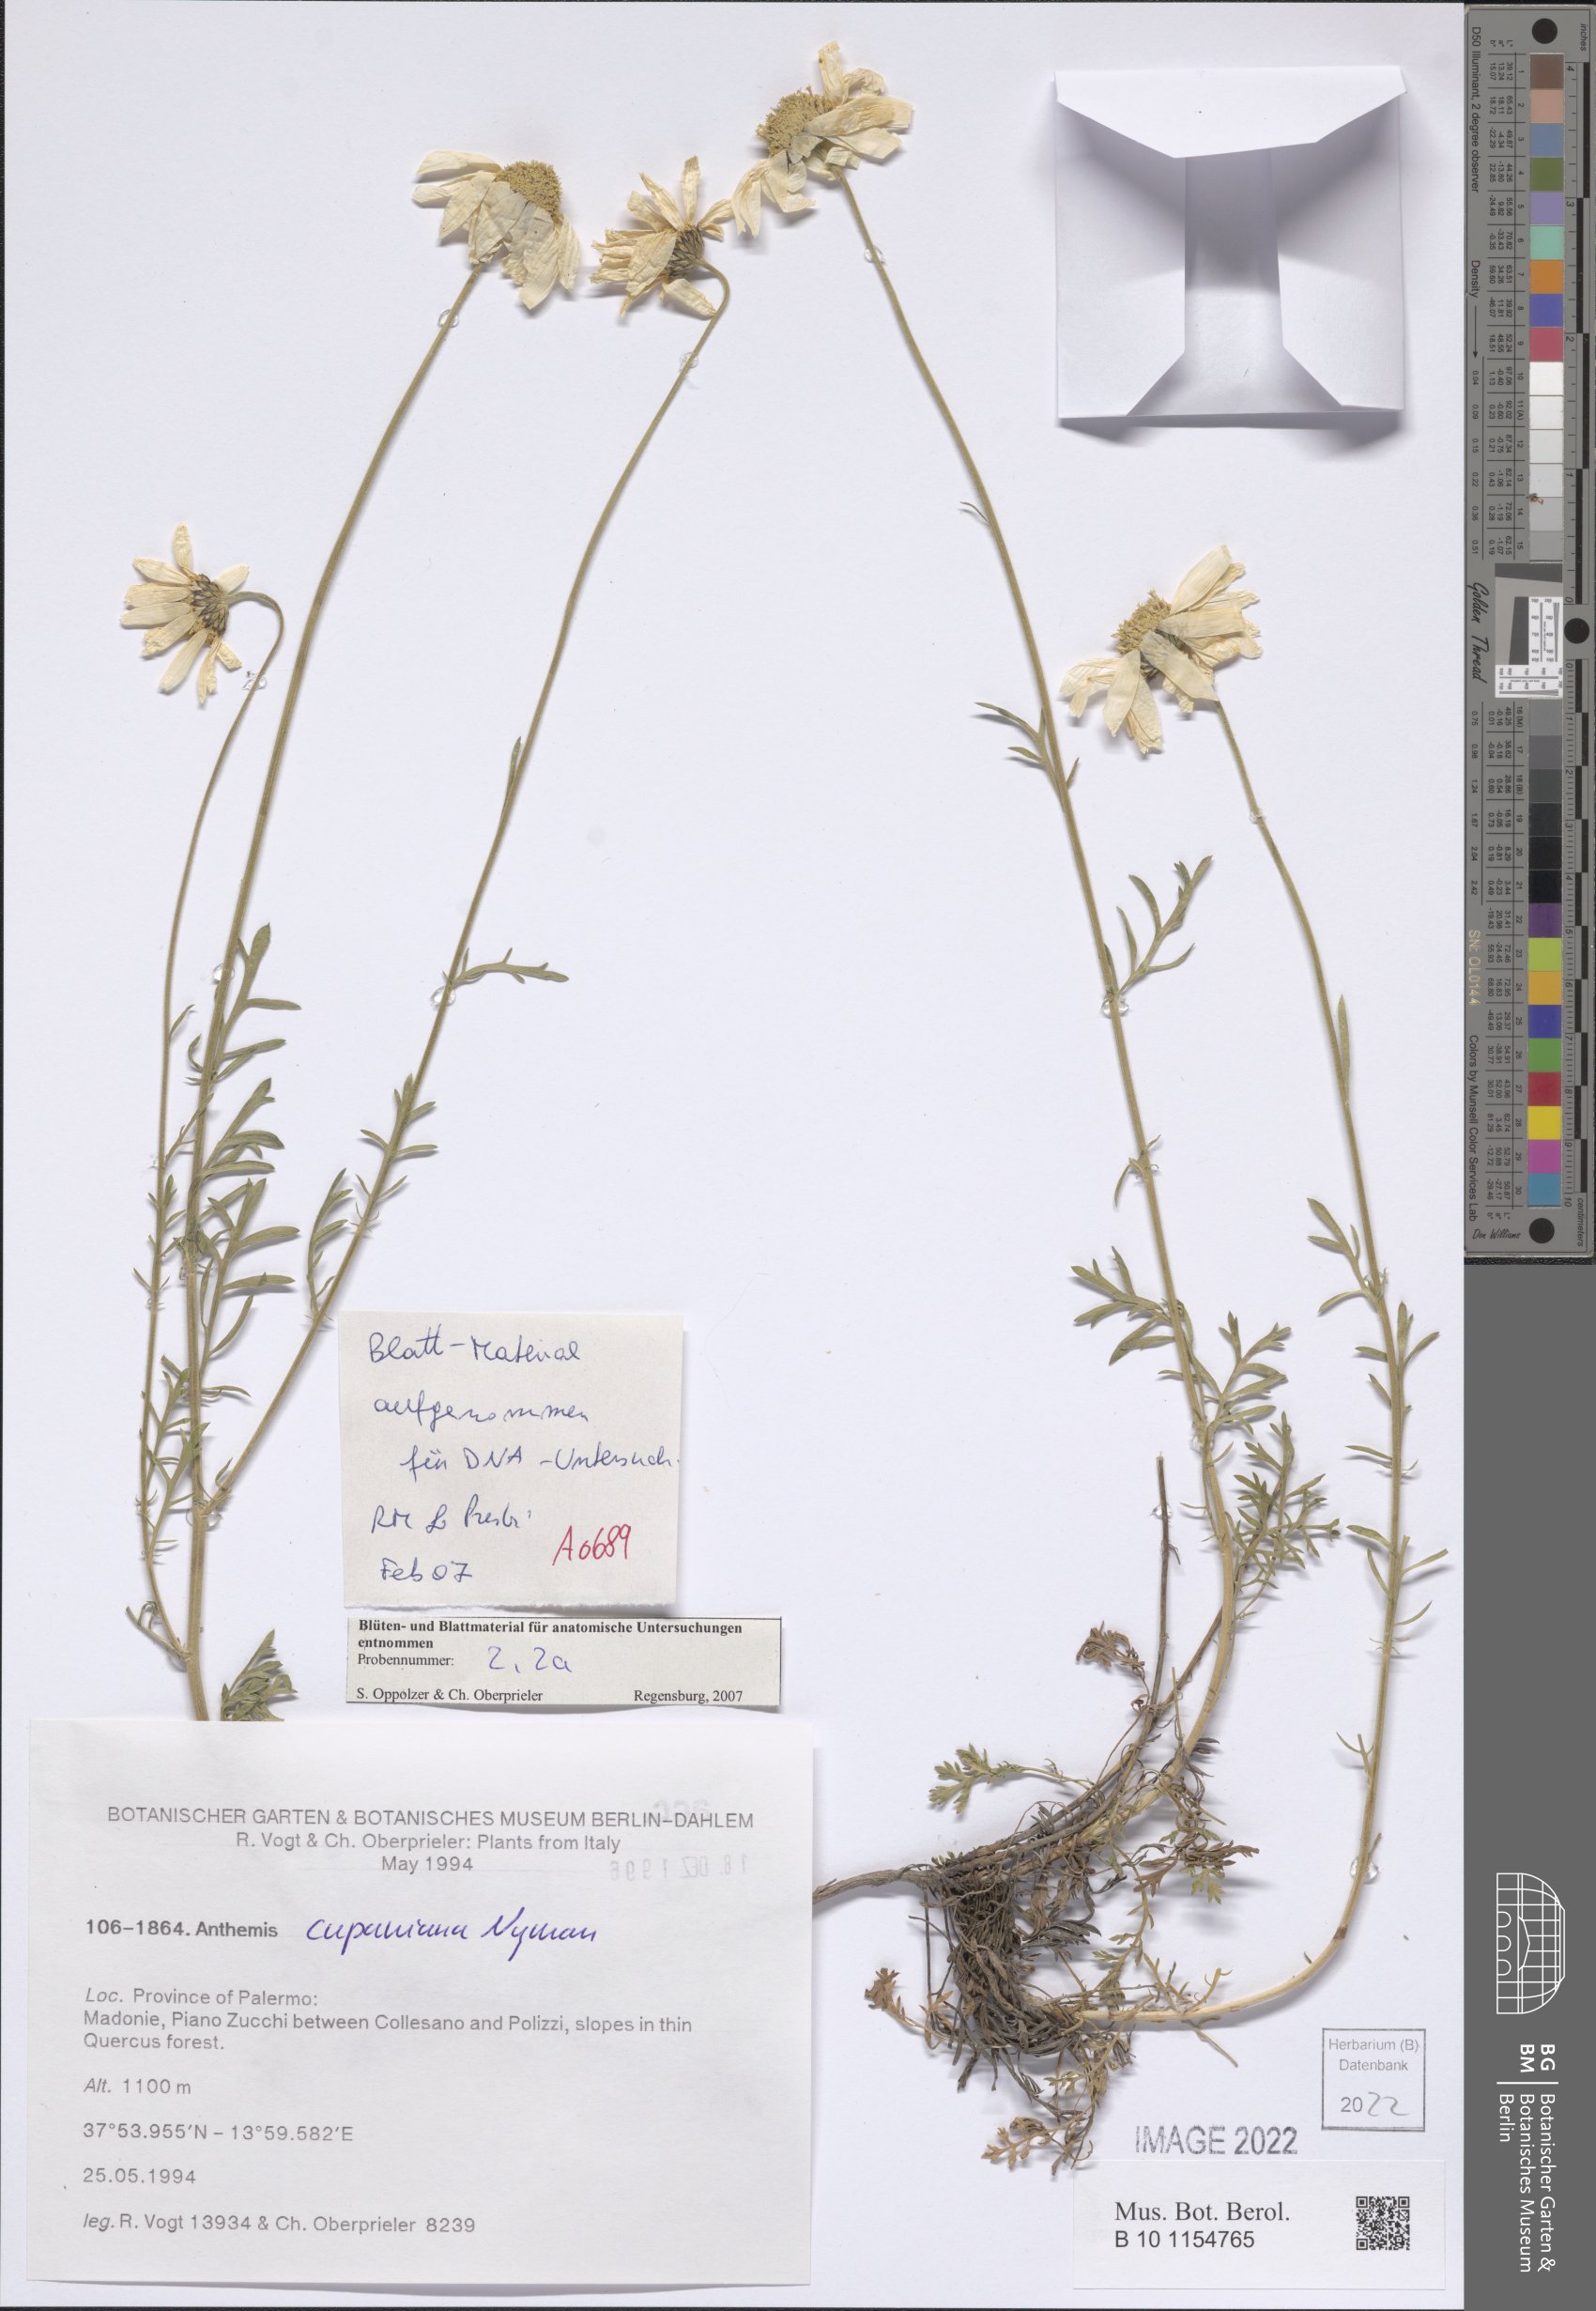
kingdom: Plantae
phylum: Tracheophyta
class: Magnoliopsida
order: Asterales
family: Asteraceae
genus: Anthemis
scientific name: Anthemis cupaniana
